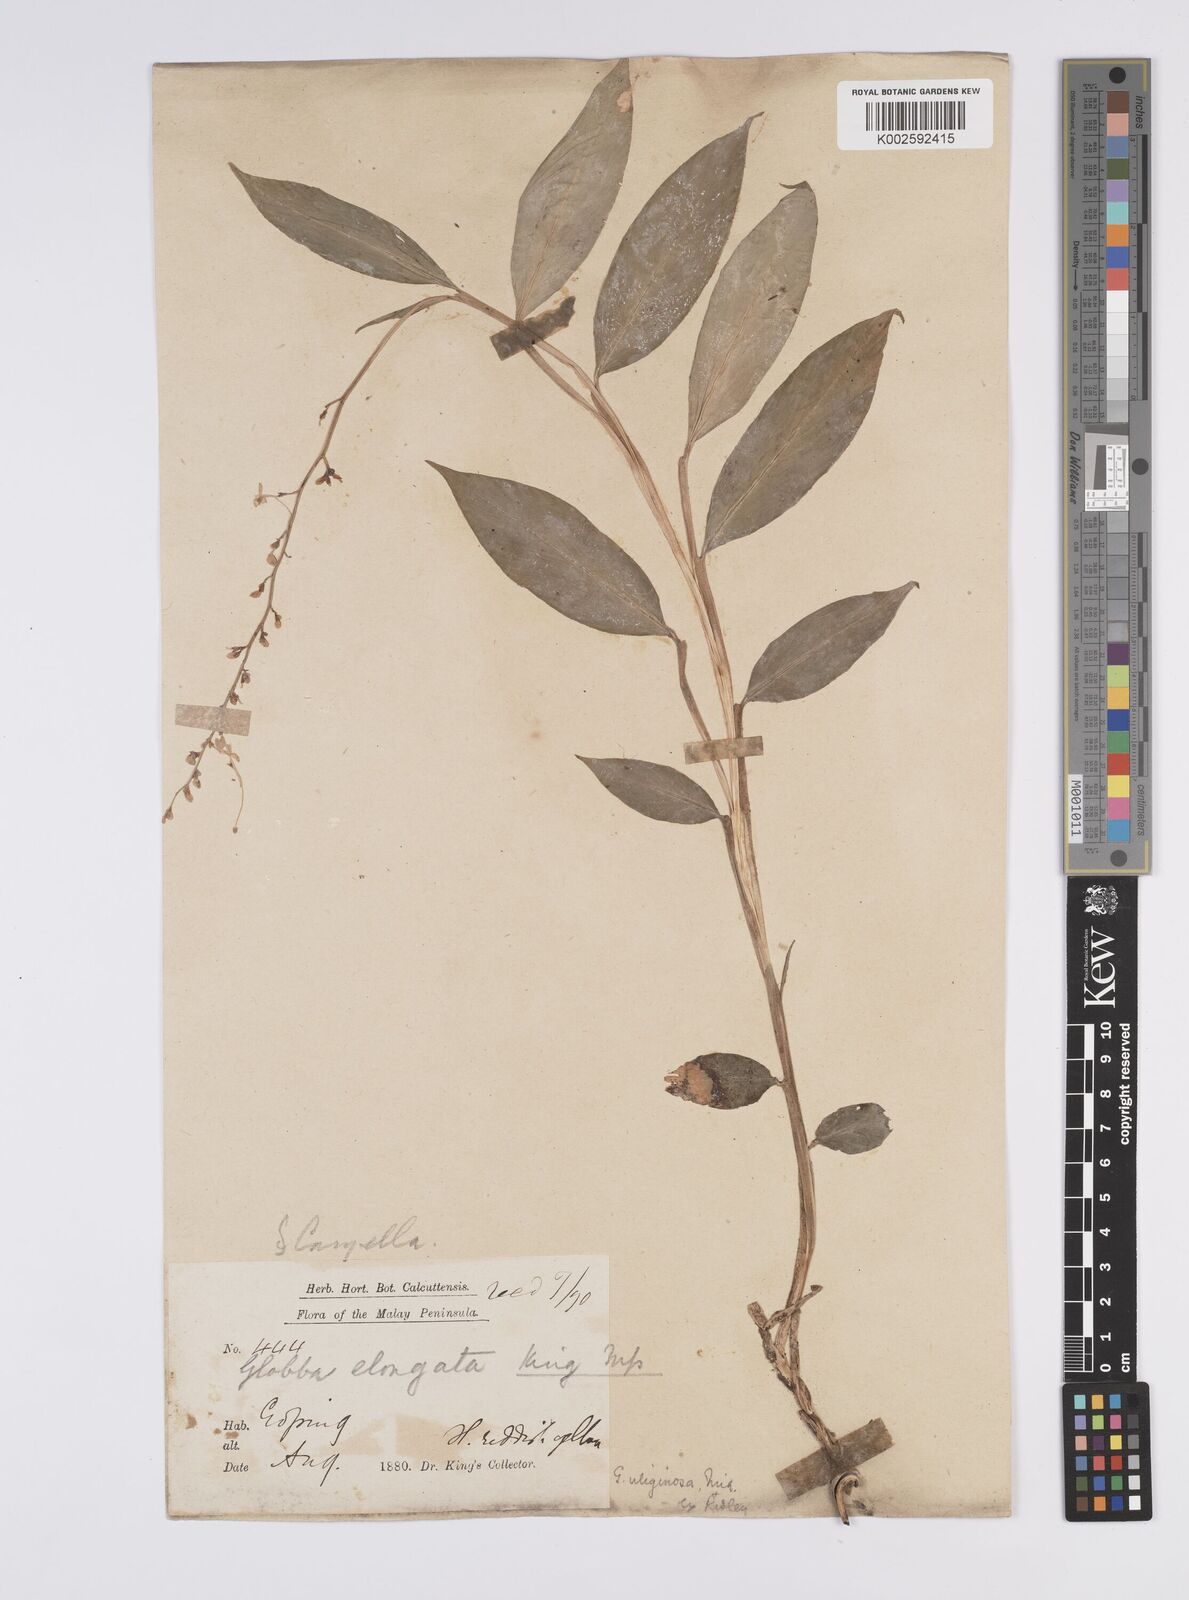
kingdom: Plantae
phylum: Tracheophyta
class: Liliopsida
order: Zingiberales
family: Zingiberaceae
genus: Globba
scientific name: Globba pendula
